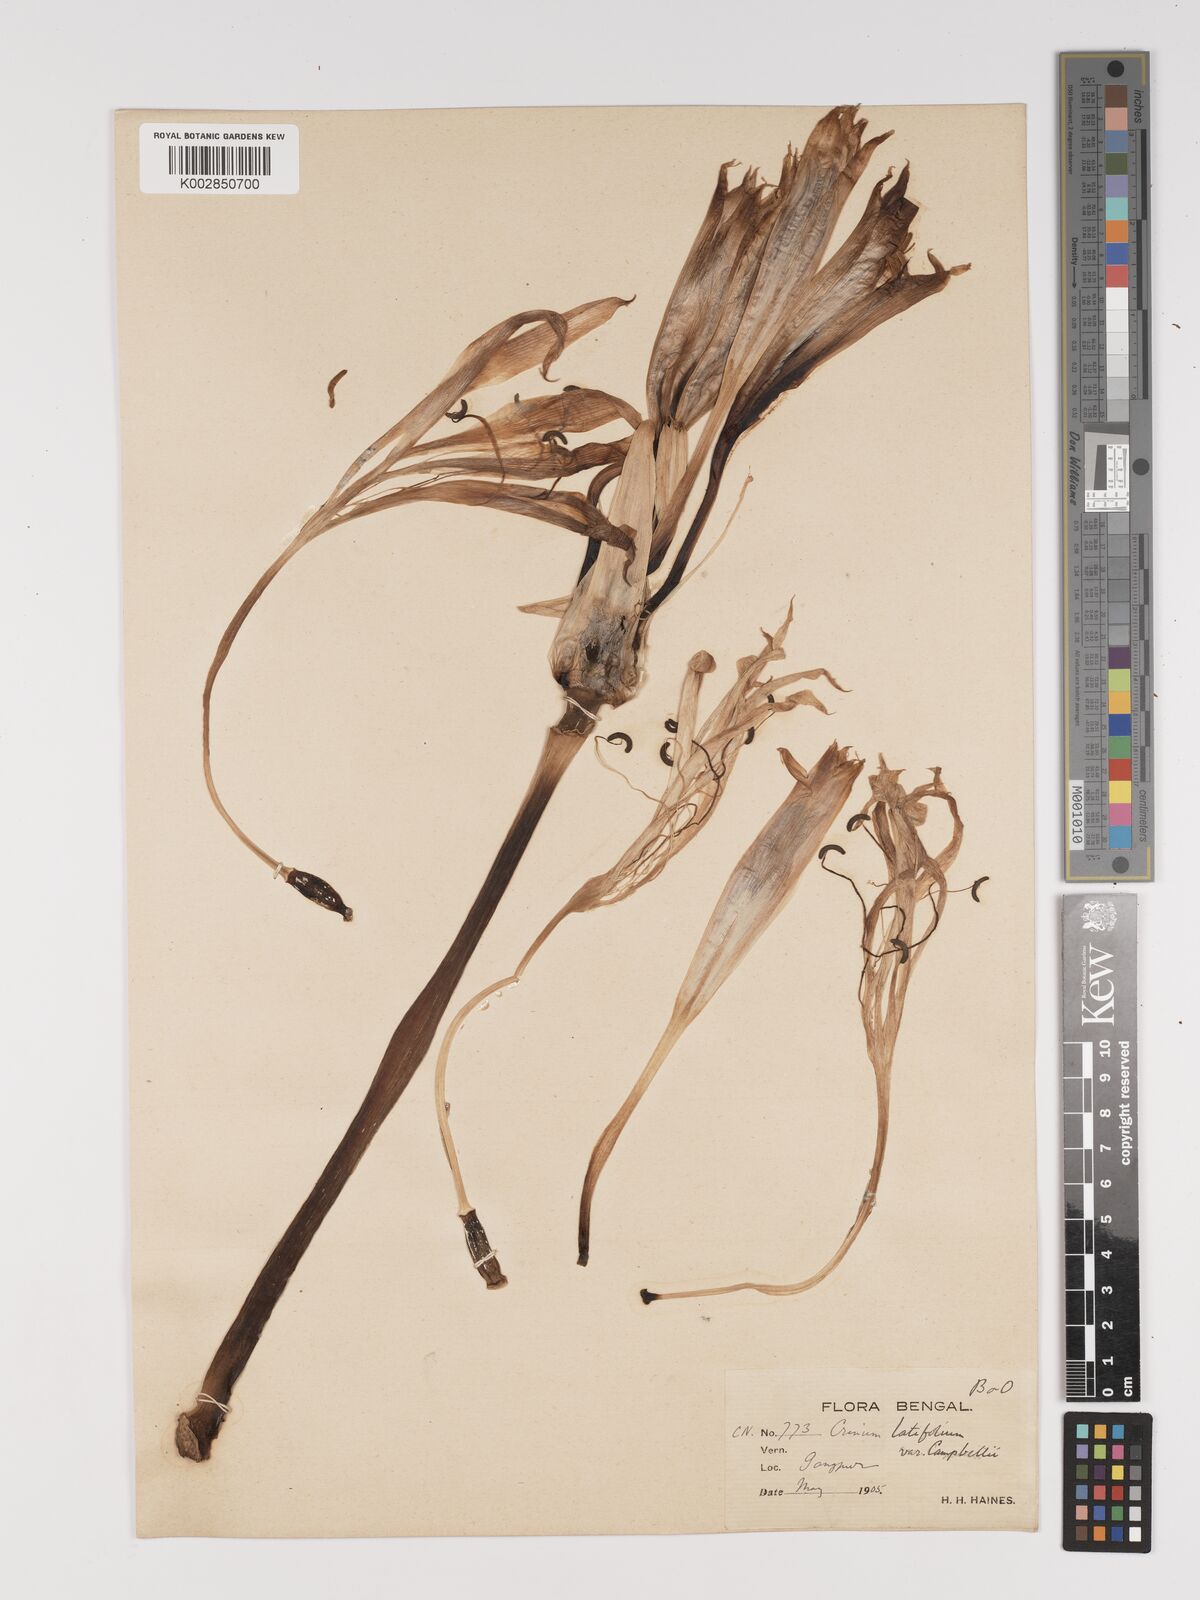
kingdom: Plantae
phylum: Tracheophyta
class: Liliopsida
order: Asparagales
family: Amaryllidaceae
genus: Crinum
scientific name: Crinum latifolium
